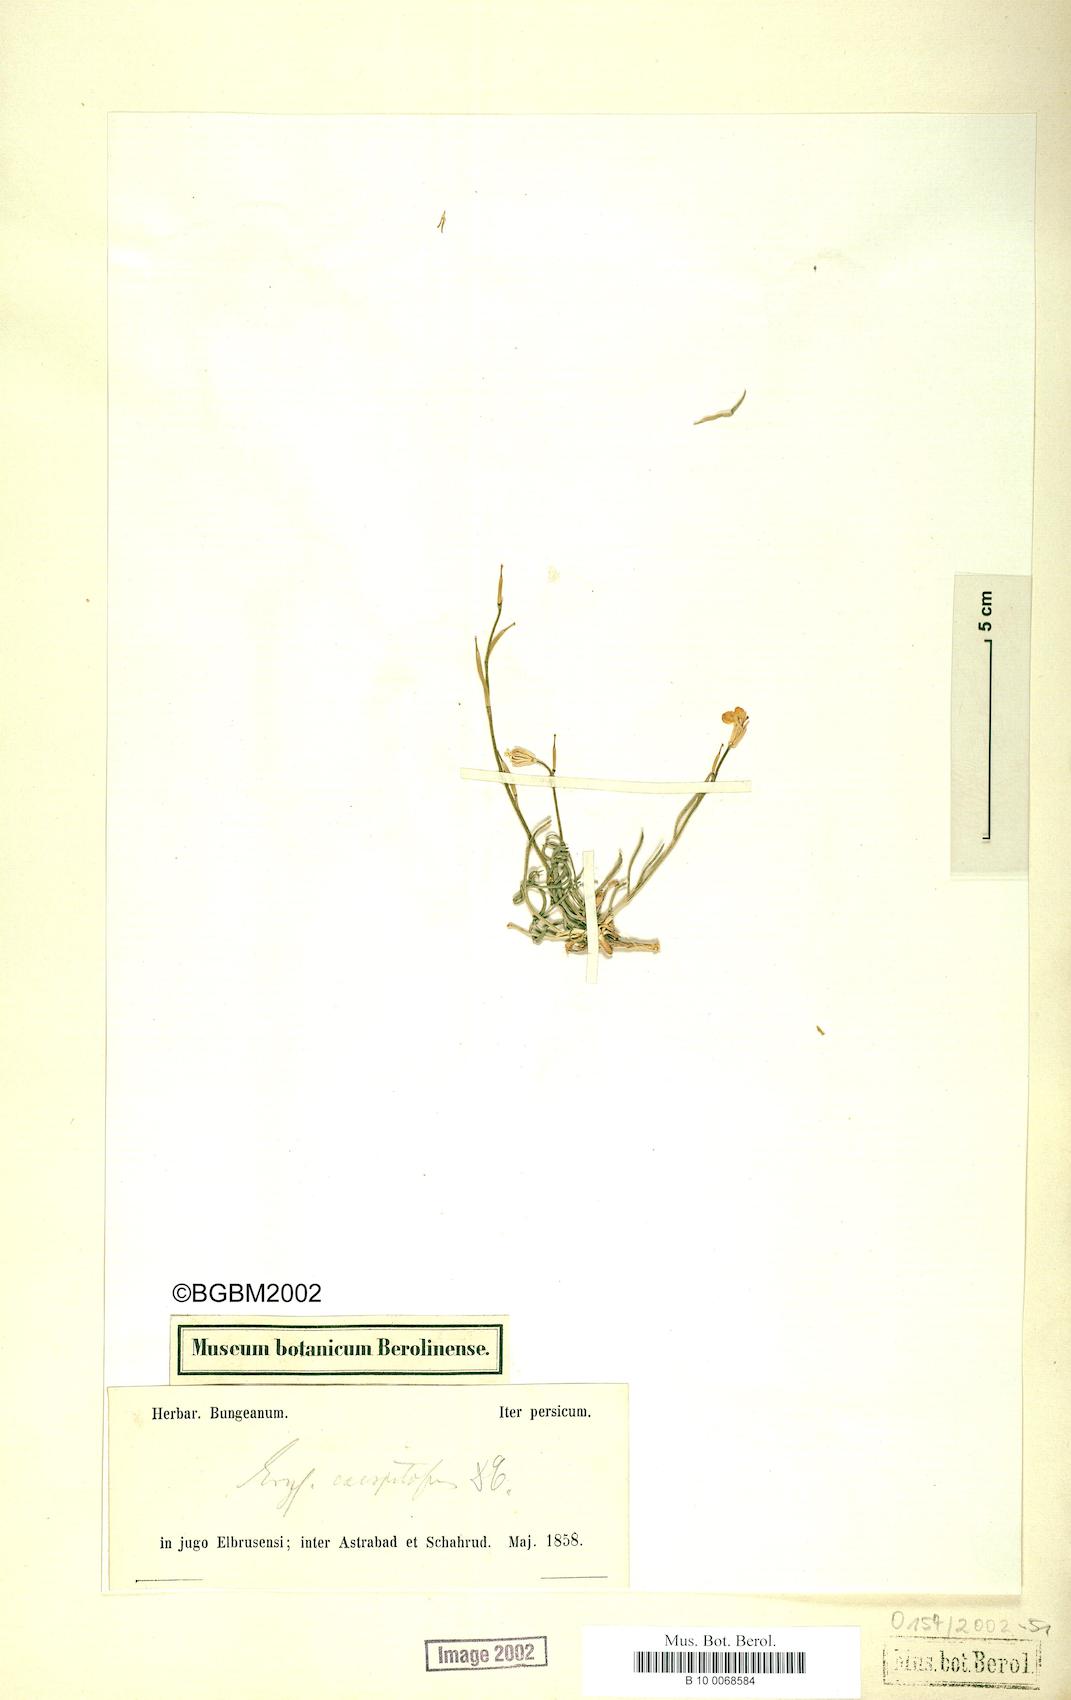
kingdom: Plantae
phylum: Tracheophyta
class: Magnoliopsida
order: Brassicales
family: Brassicaceae
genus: Erysimum
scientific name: Erysimum caespitosum
